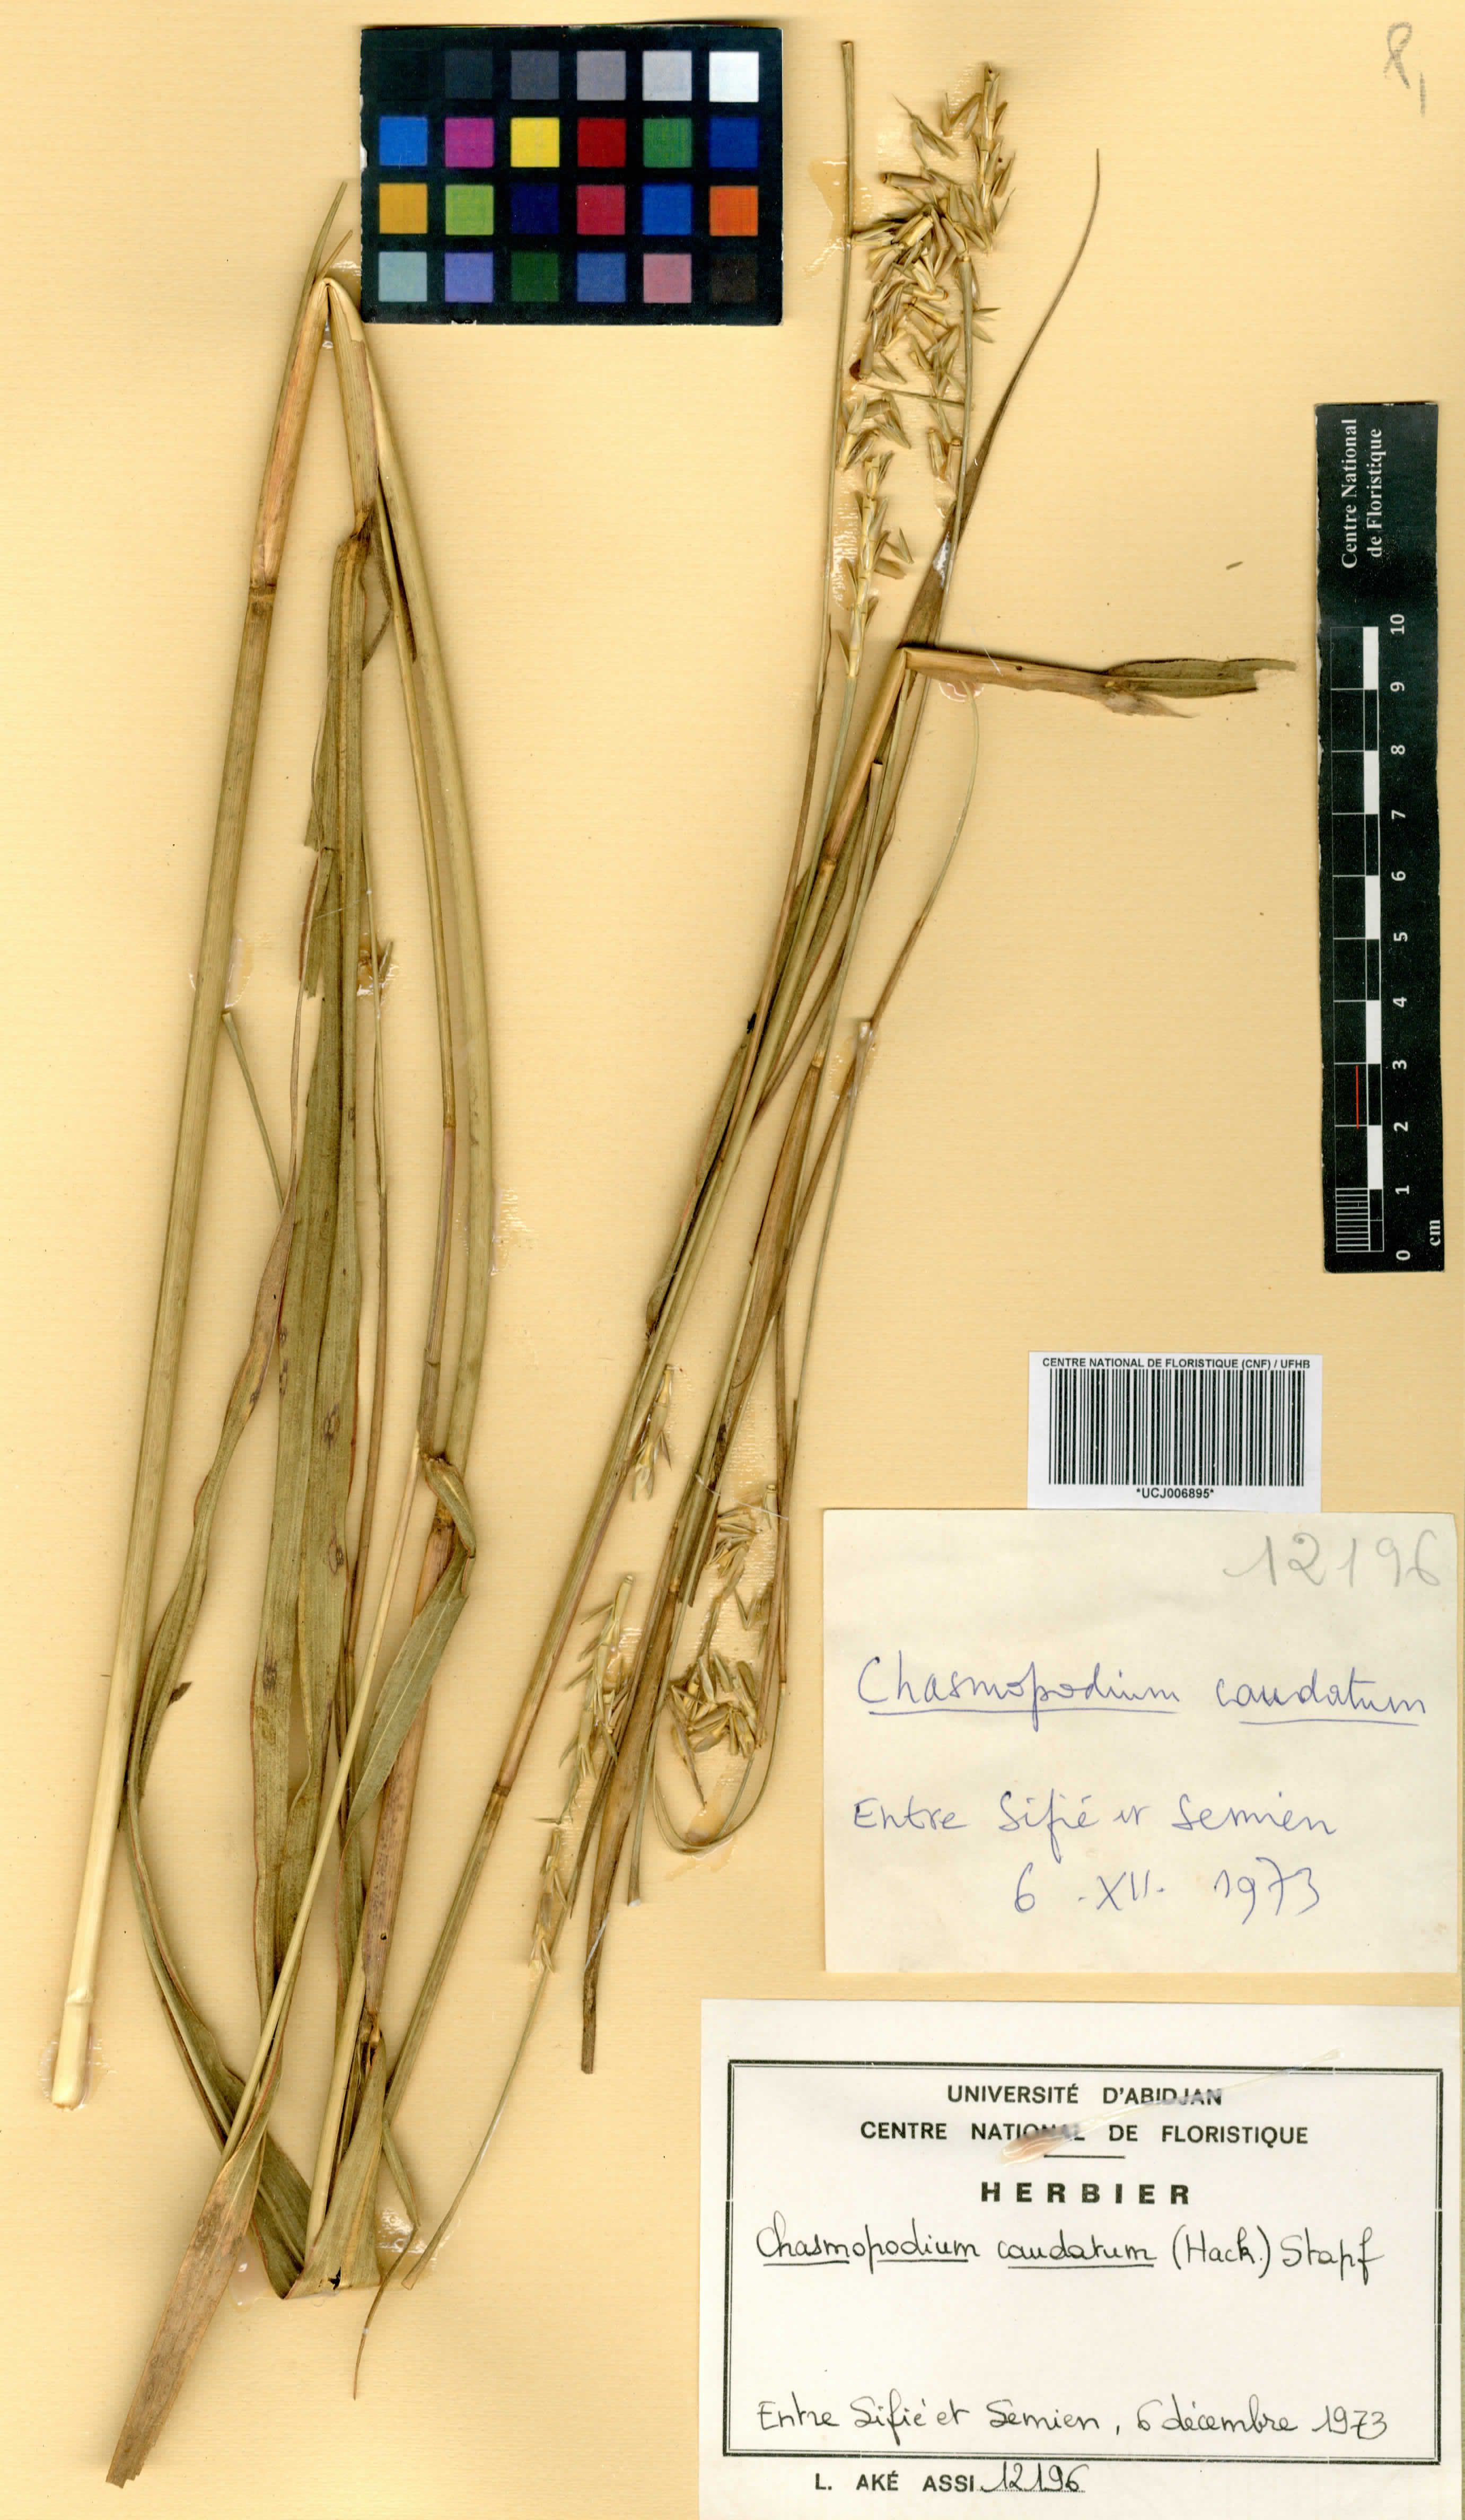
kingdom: Plantae
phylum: Tracheophyta
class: Liliopsida
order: Poales
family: Poaceae
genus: Chasmopodium
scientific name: Chasmopodium caudatum
